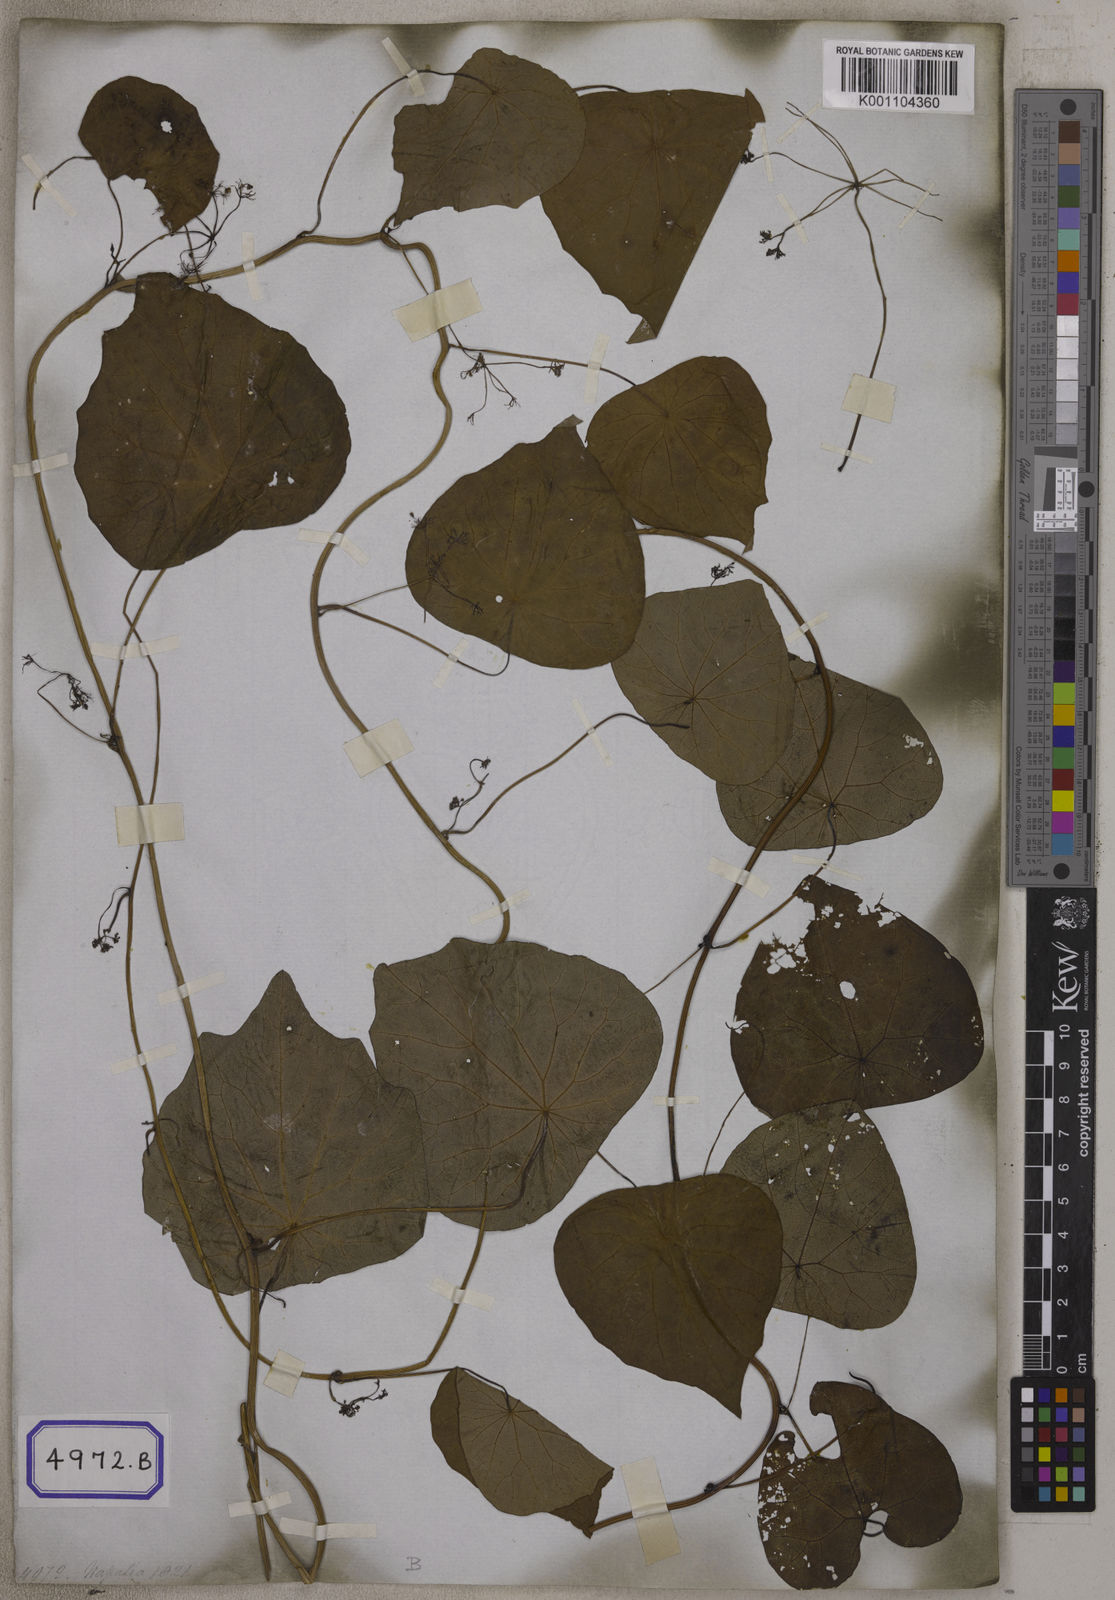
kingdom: Plantae
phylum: Tracheophyta
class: Magnoliopsida
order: Ranunculales
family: Menispermaceae
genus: Stephania
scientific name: Stephania japonica
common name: Snake vine
